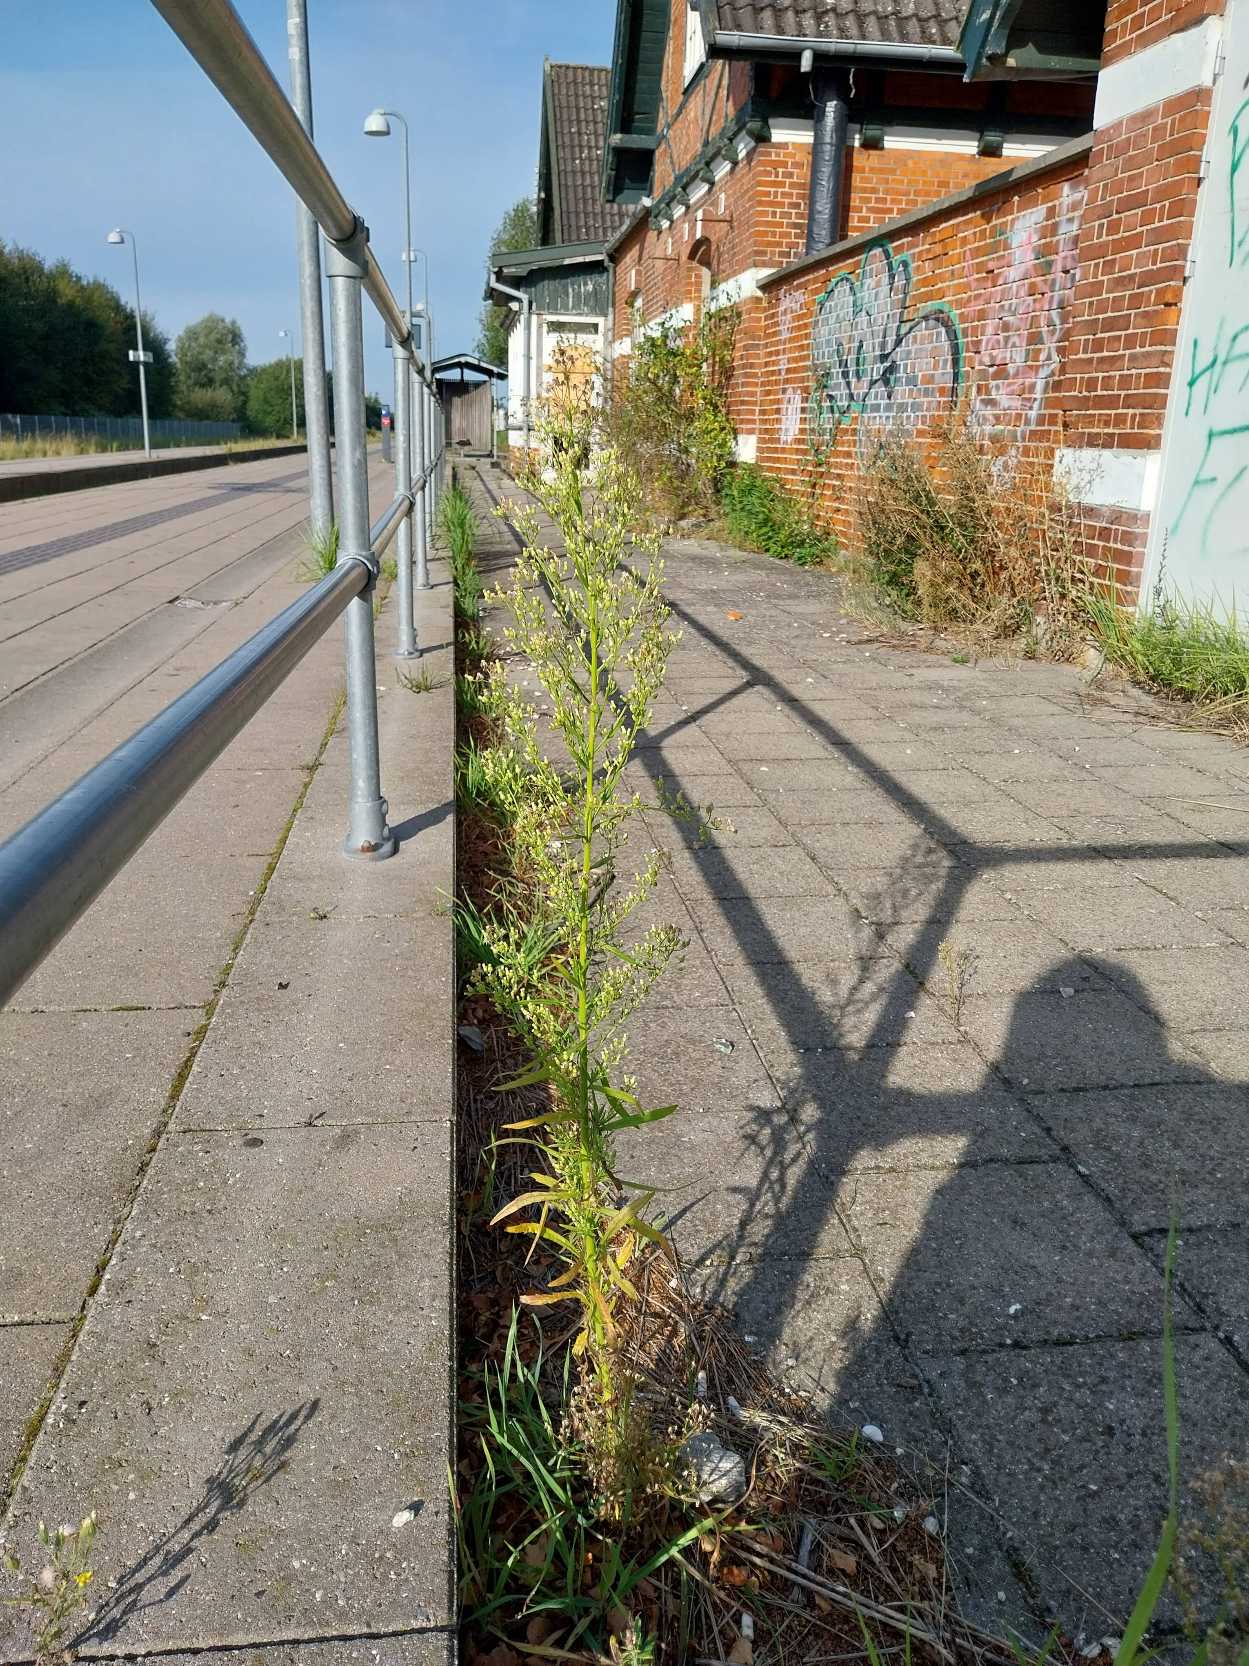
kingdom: Plantae
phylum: Tracheophyta
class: Magnoliopsida
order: Asterales
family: Asteraceae
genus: Erigeron
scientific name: Erigeron canadensis
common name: Kanadisk bakkestjerne
